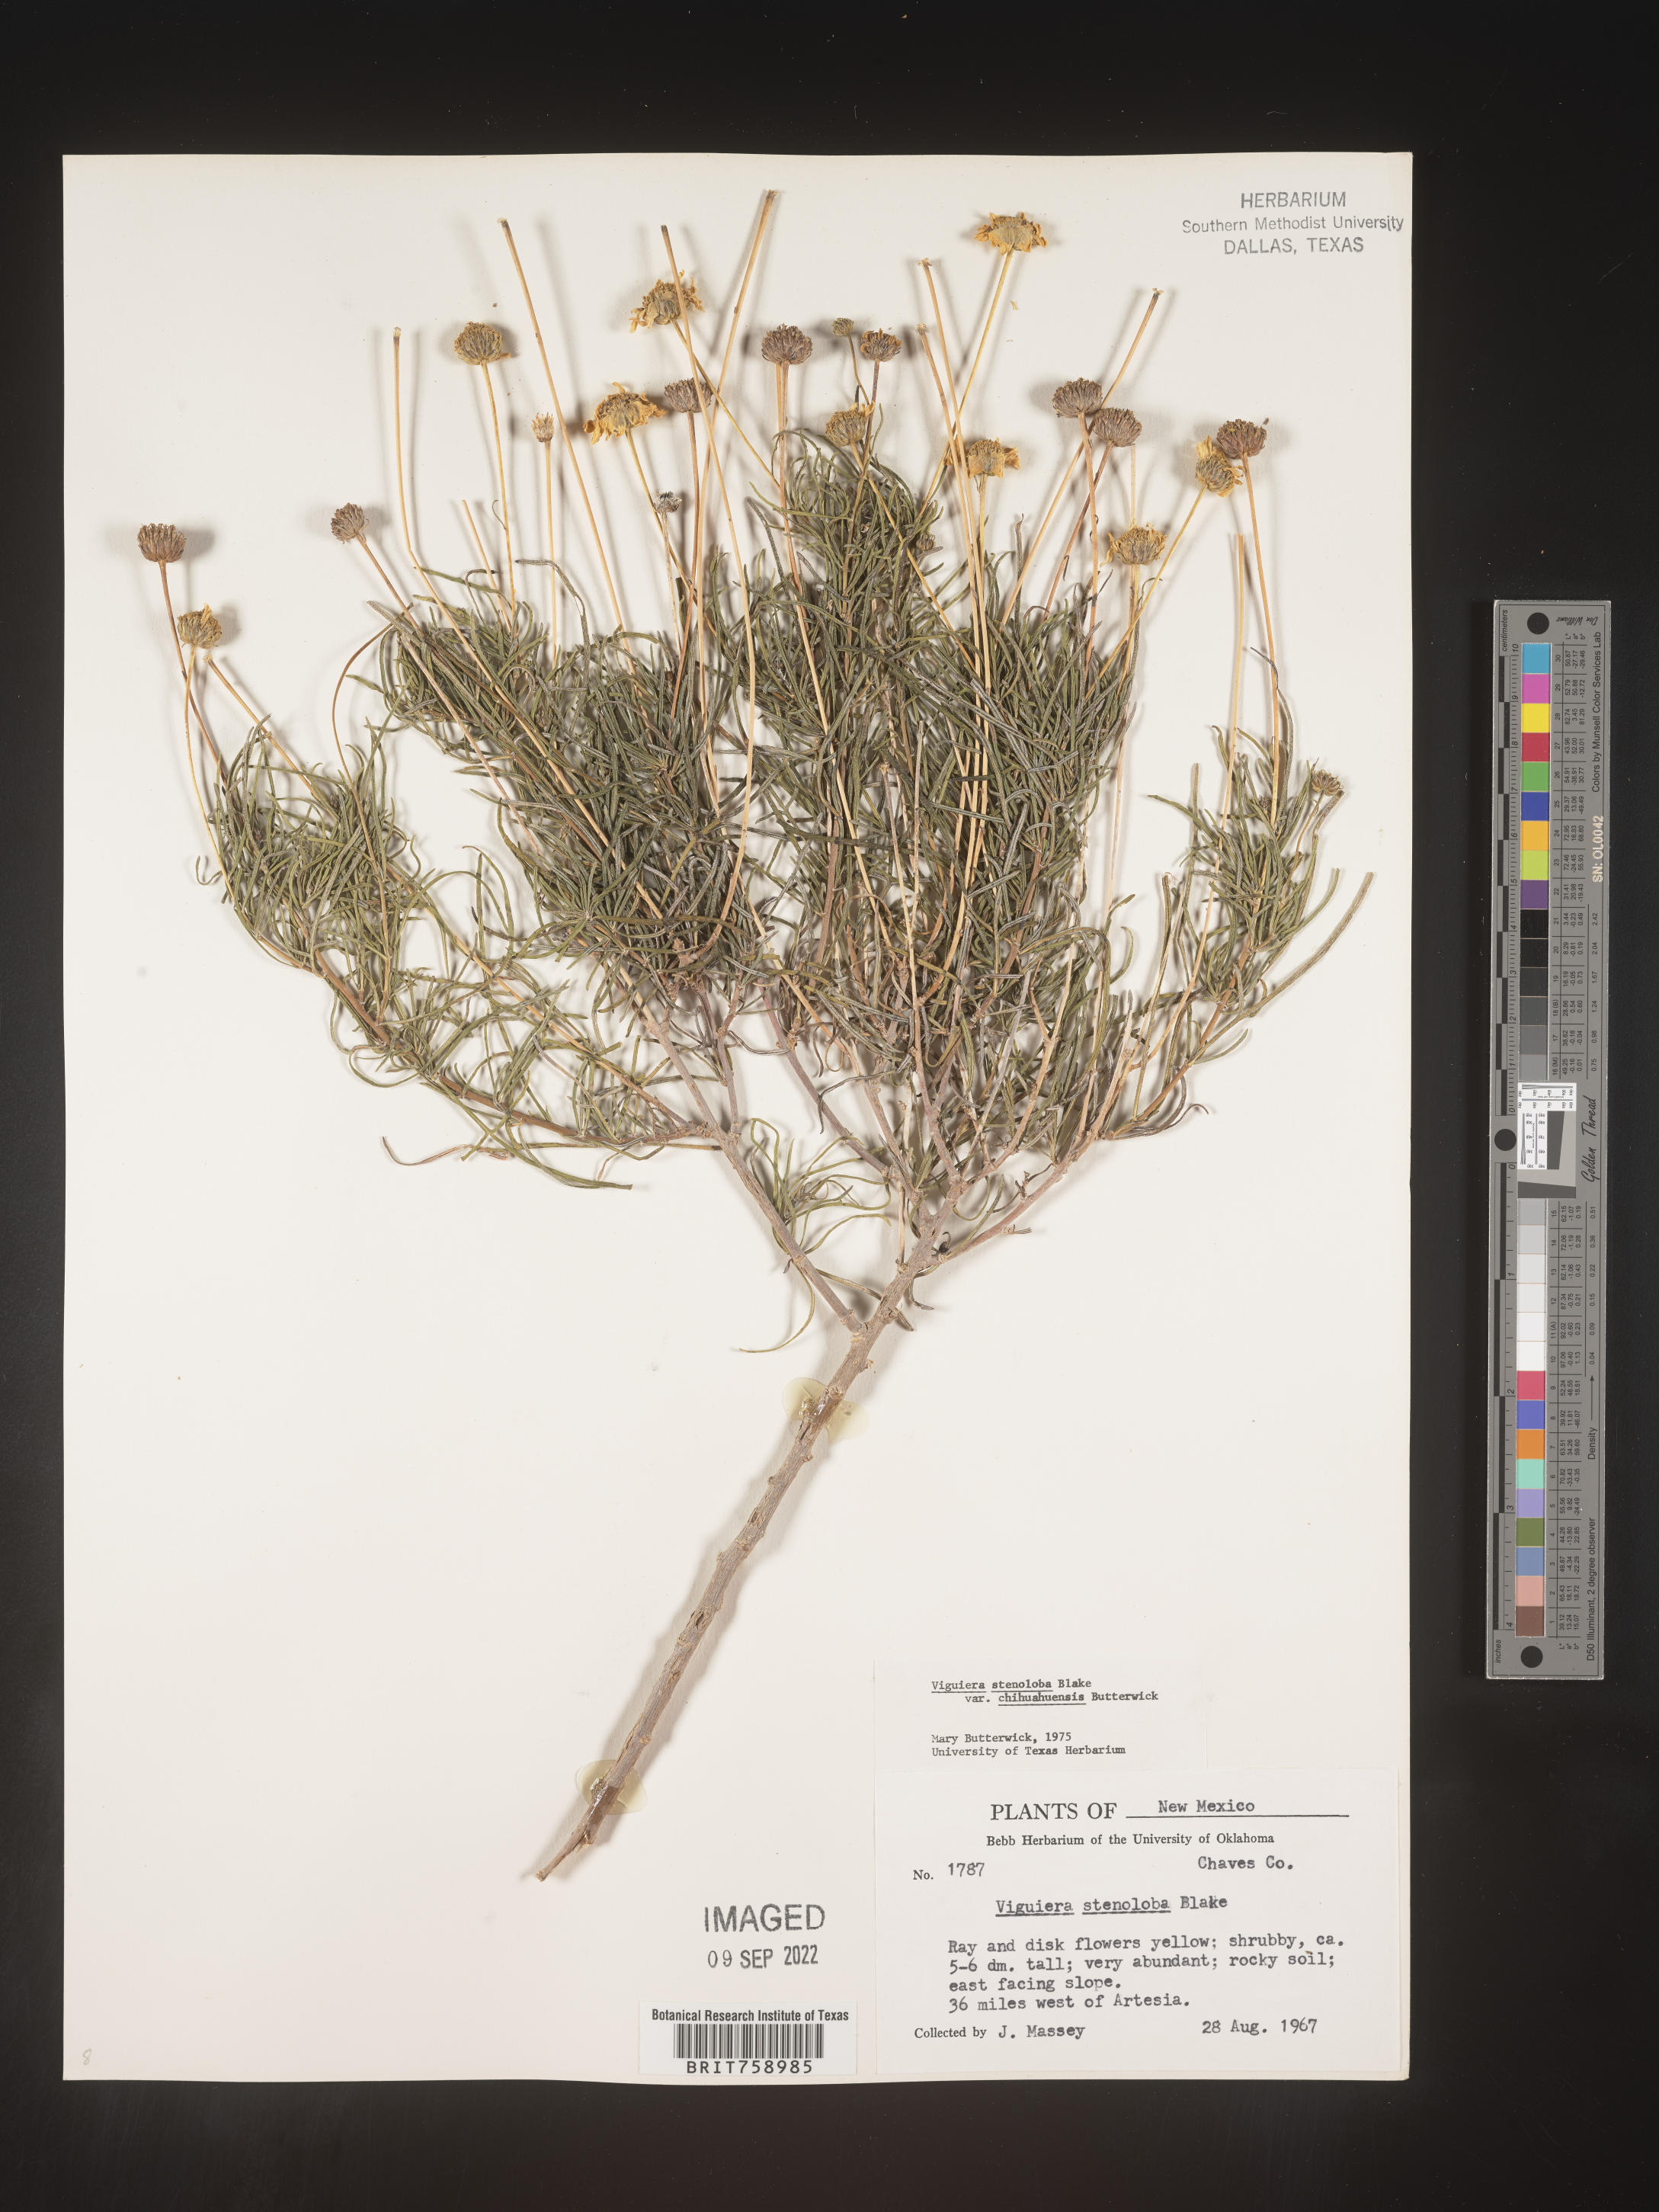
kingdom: Plantae
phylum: Tracheophyta
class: Magnoliopsida
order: Asterales
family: Asteraceae
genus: Viguiera
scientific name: Viguiera
